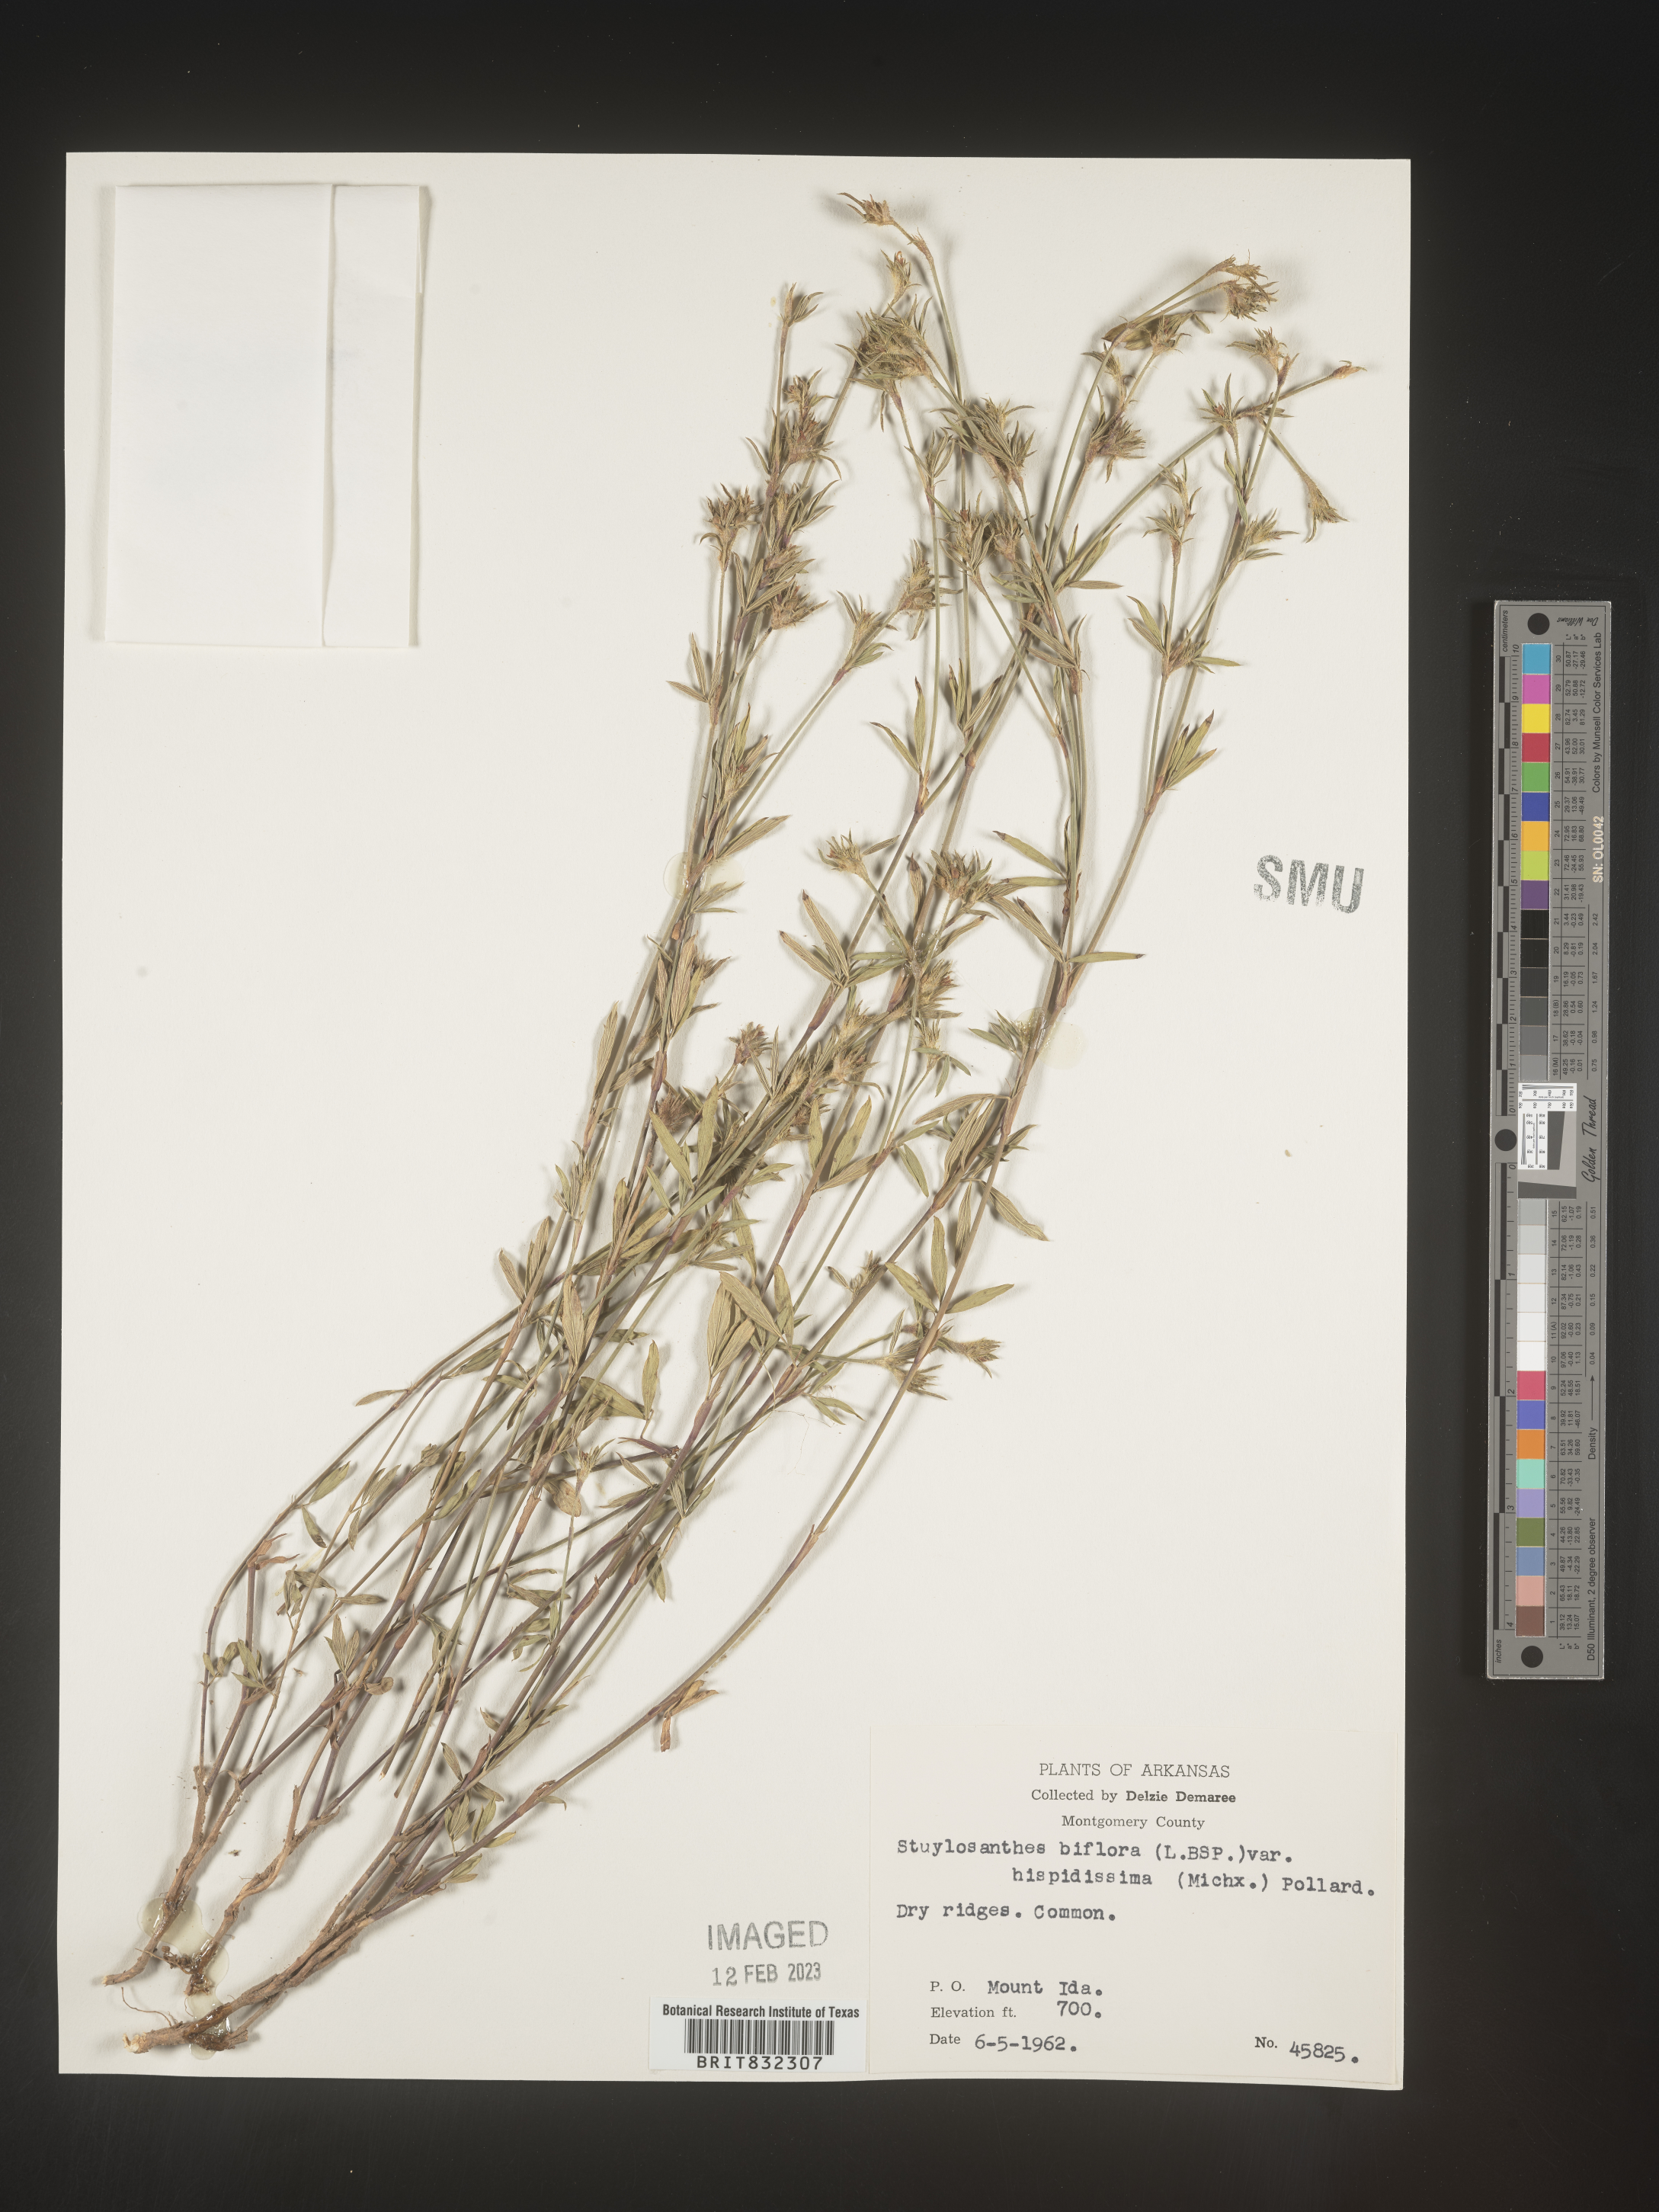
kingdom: Plantae
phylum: Tracheophyta
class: Magnoliopsida
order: Fabales
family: Fabaceae
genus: Stylosanthes
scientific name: Stylosanthes biflora
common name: Two-flower pencil-flower
